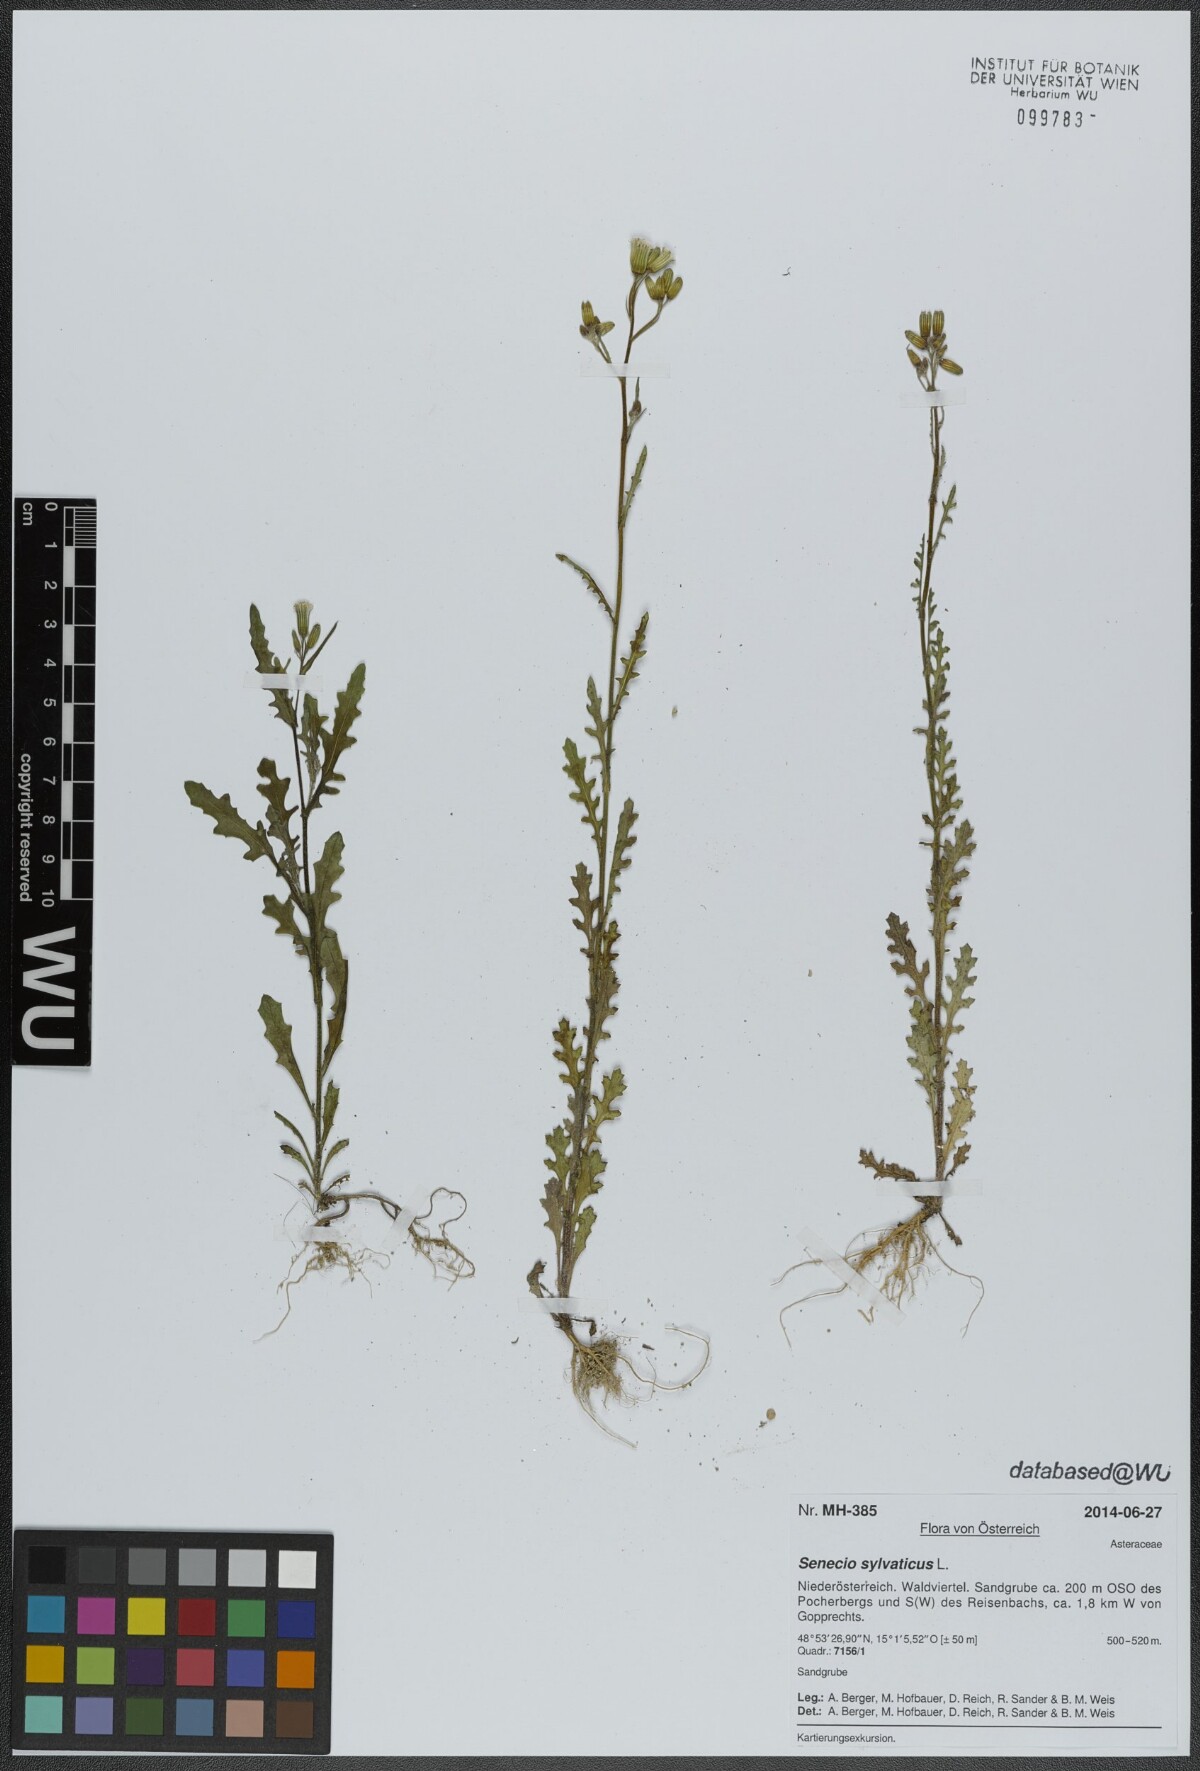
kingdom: Plantae
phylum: Tracheophyta
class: Magnoliopsida
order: Asterales
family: Asteraceae
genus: Senecio
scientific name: Senecio sylvaticus
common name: Woodland ragwort
